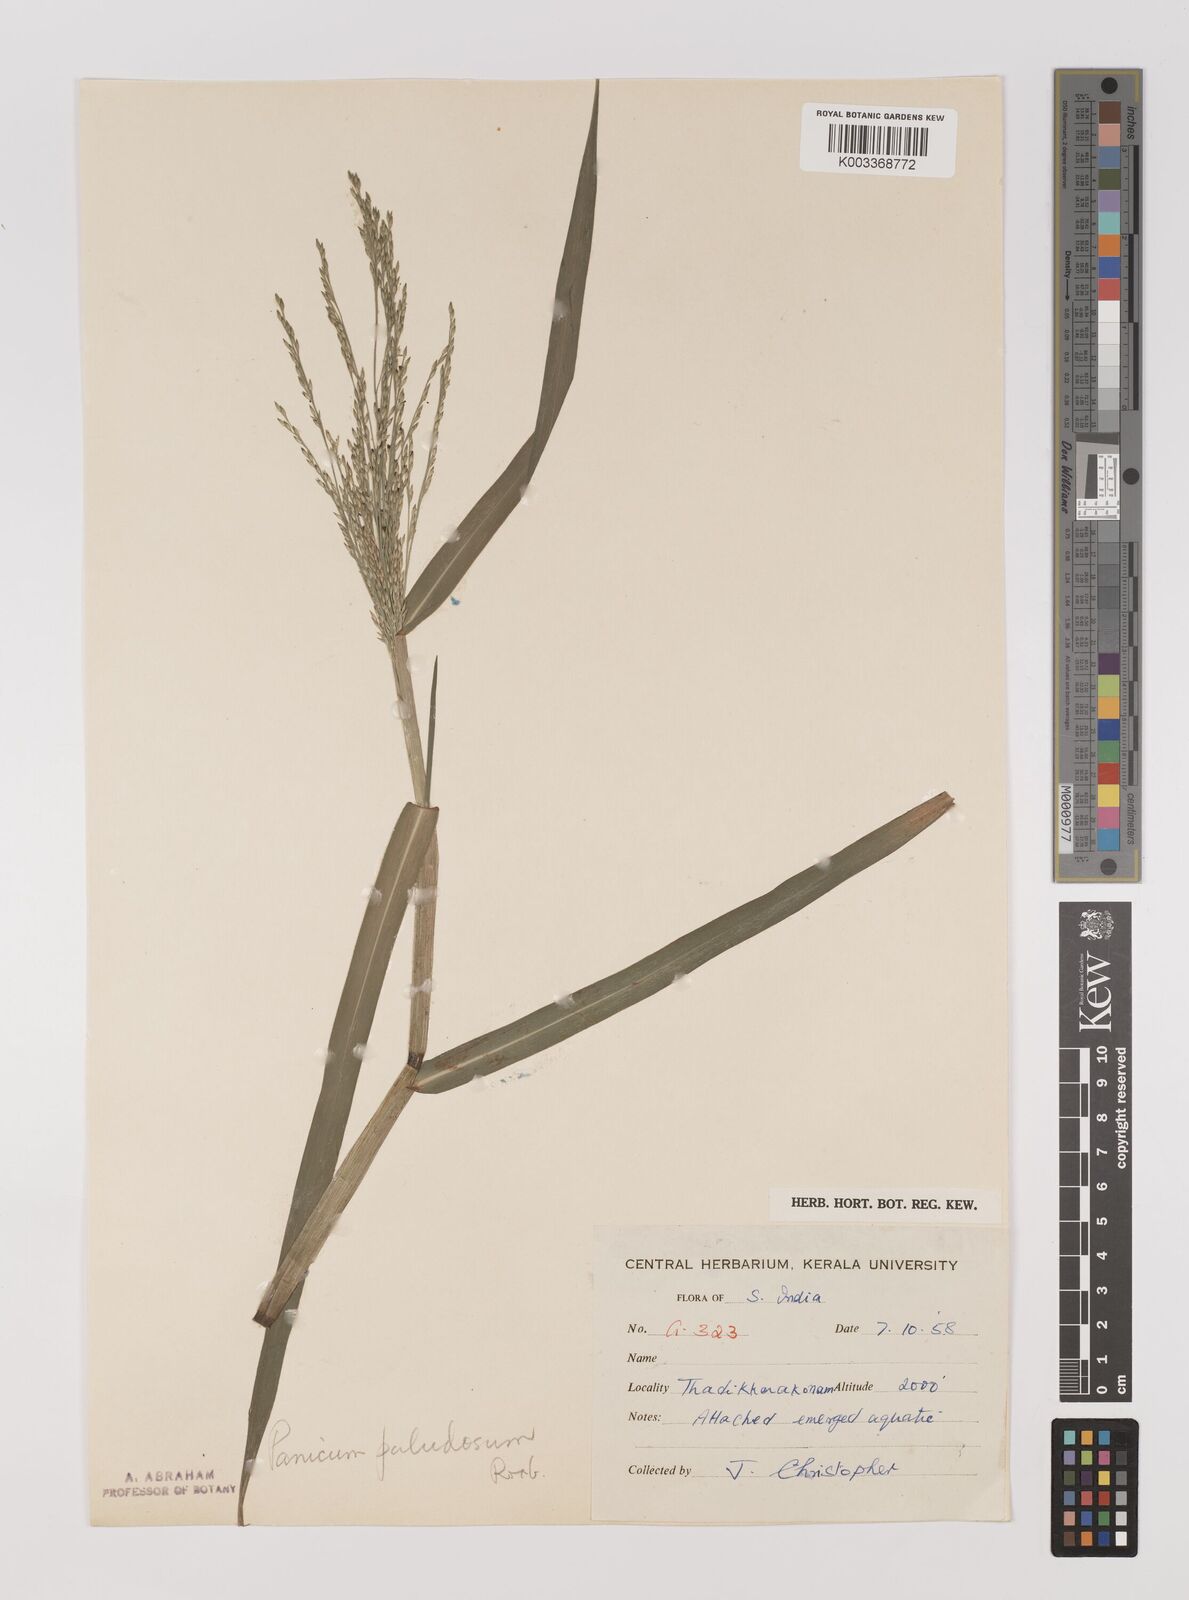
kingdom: Plantae
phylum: Tracheophyta
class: Liliopsida
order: Poales
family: Poaceae
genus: Louisiella
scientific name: Louisiella paludosa
